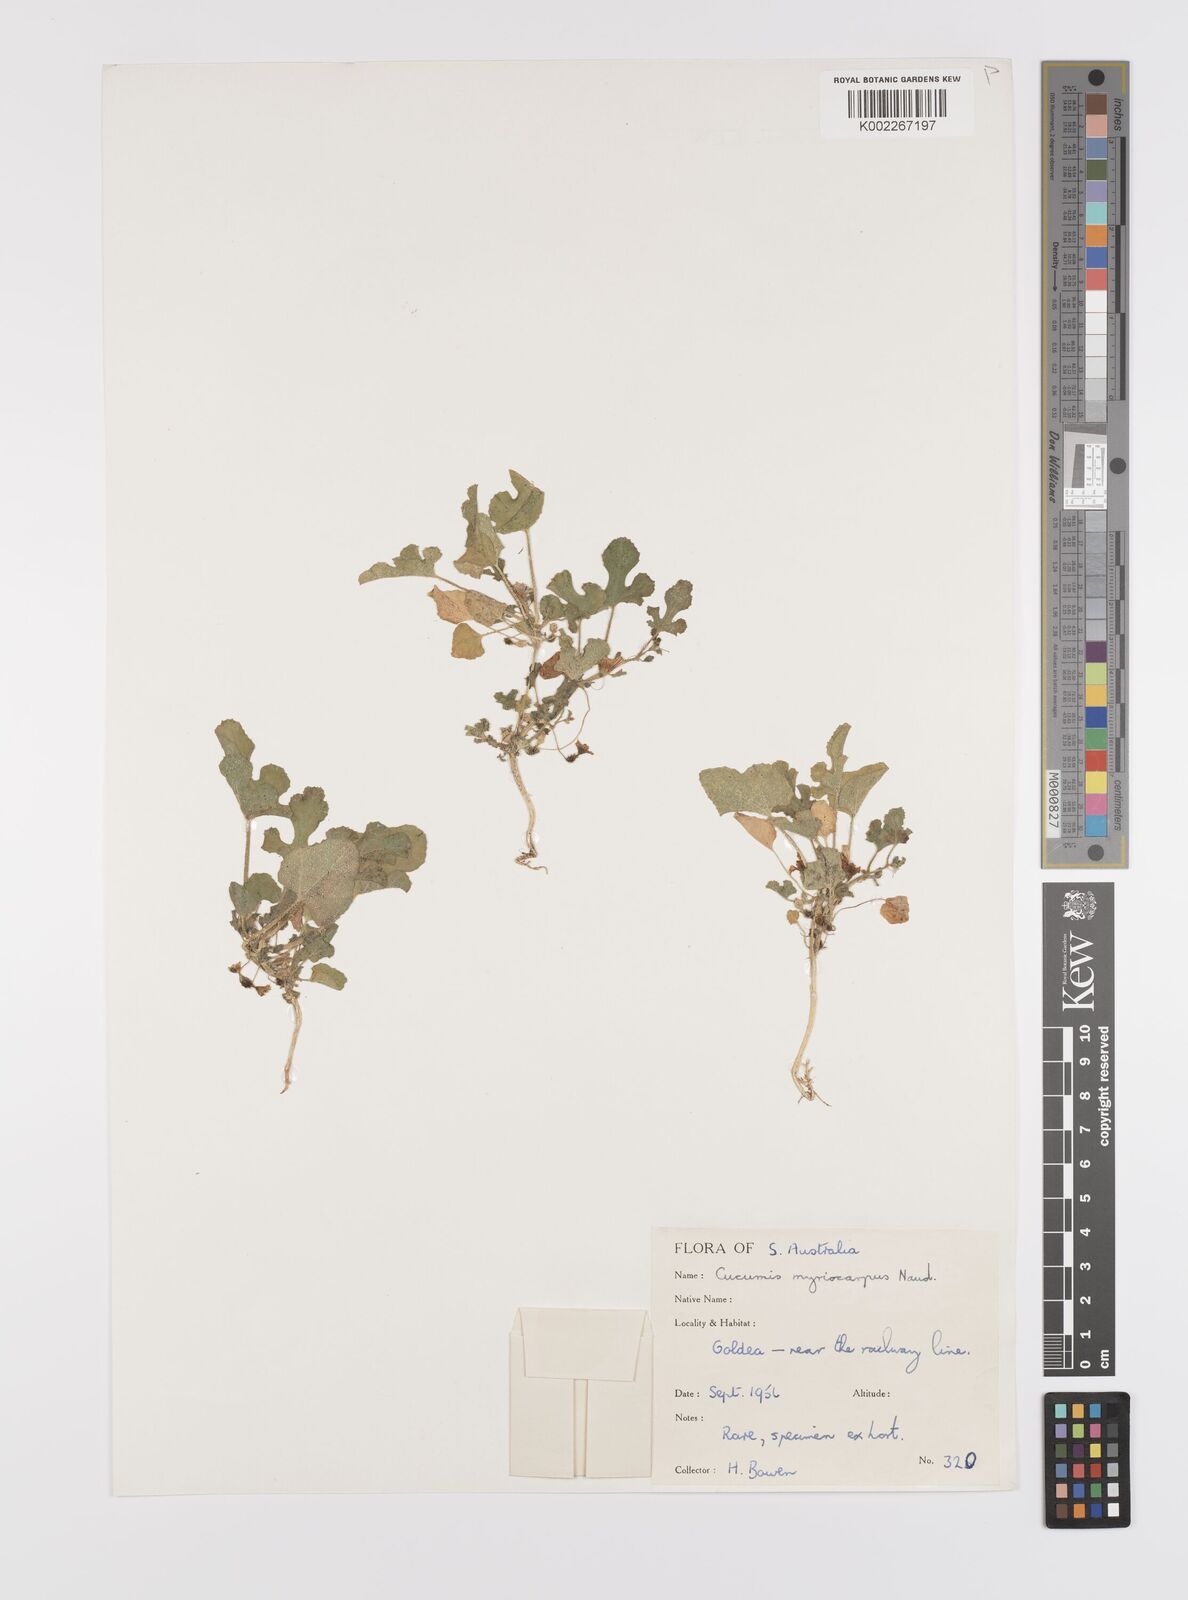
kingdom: Plantae
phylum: Tracheophyta
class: Magnoliopsida
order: Cucurbitales
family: Cucurbitaceae
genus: Cucumis
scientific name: Cucumis myriocarpus
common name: Gooseberry cucumber
